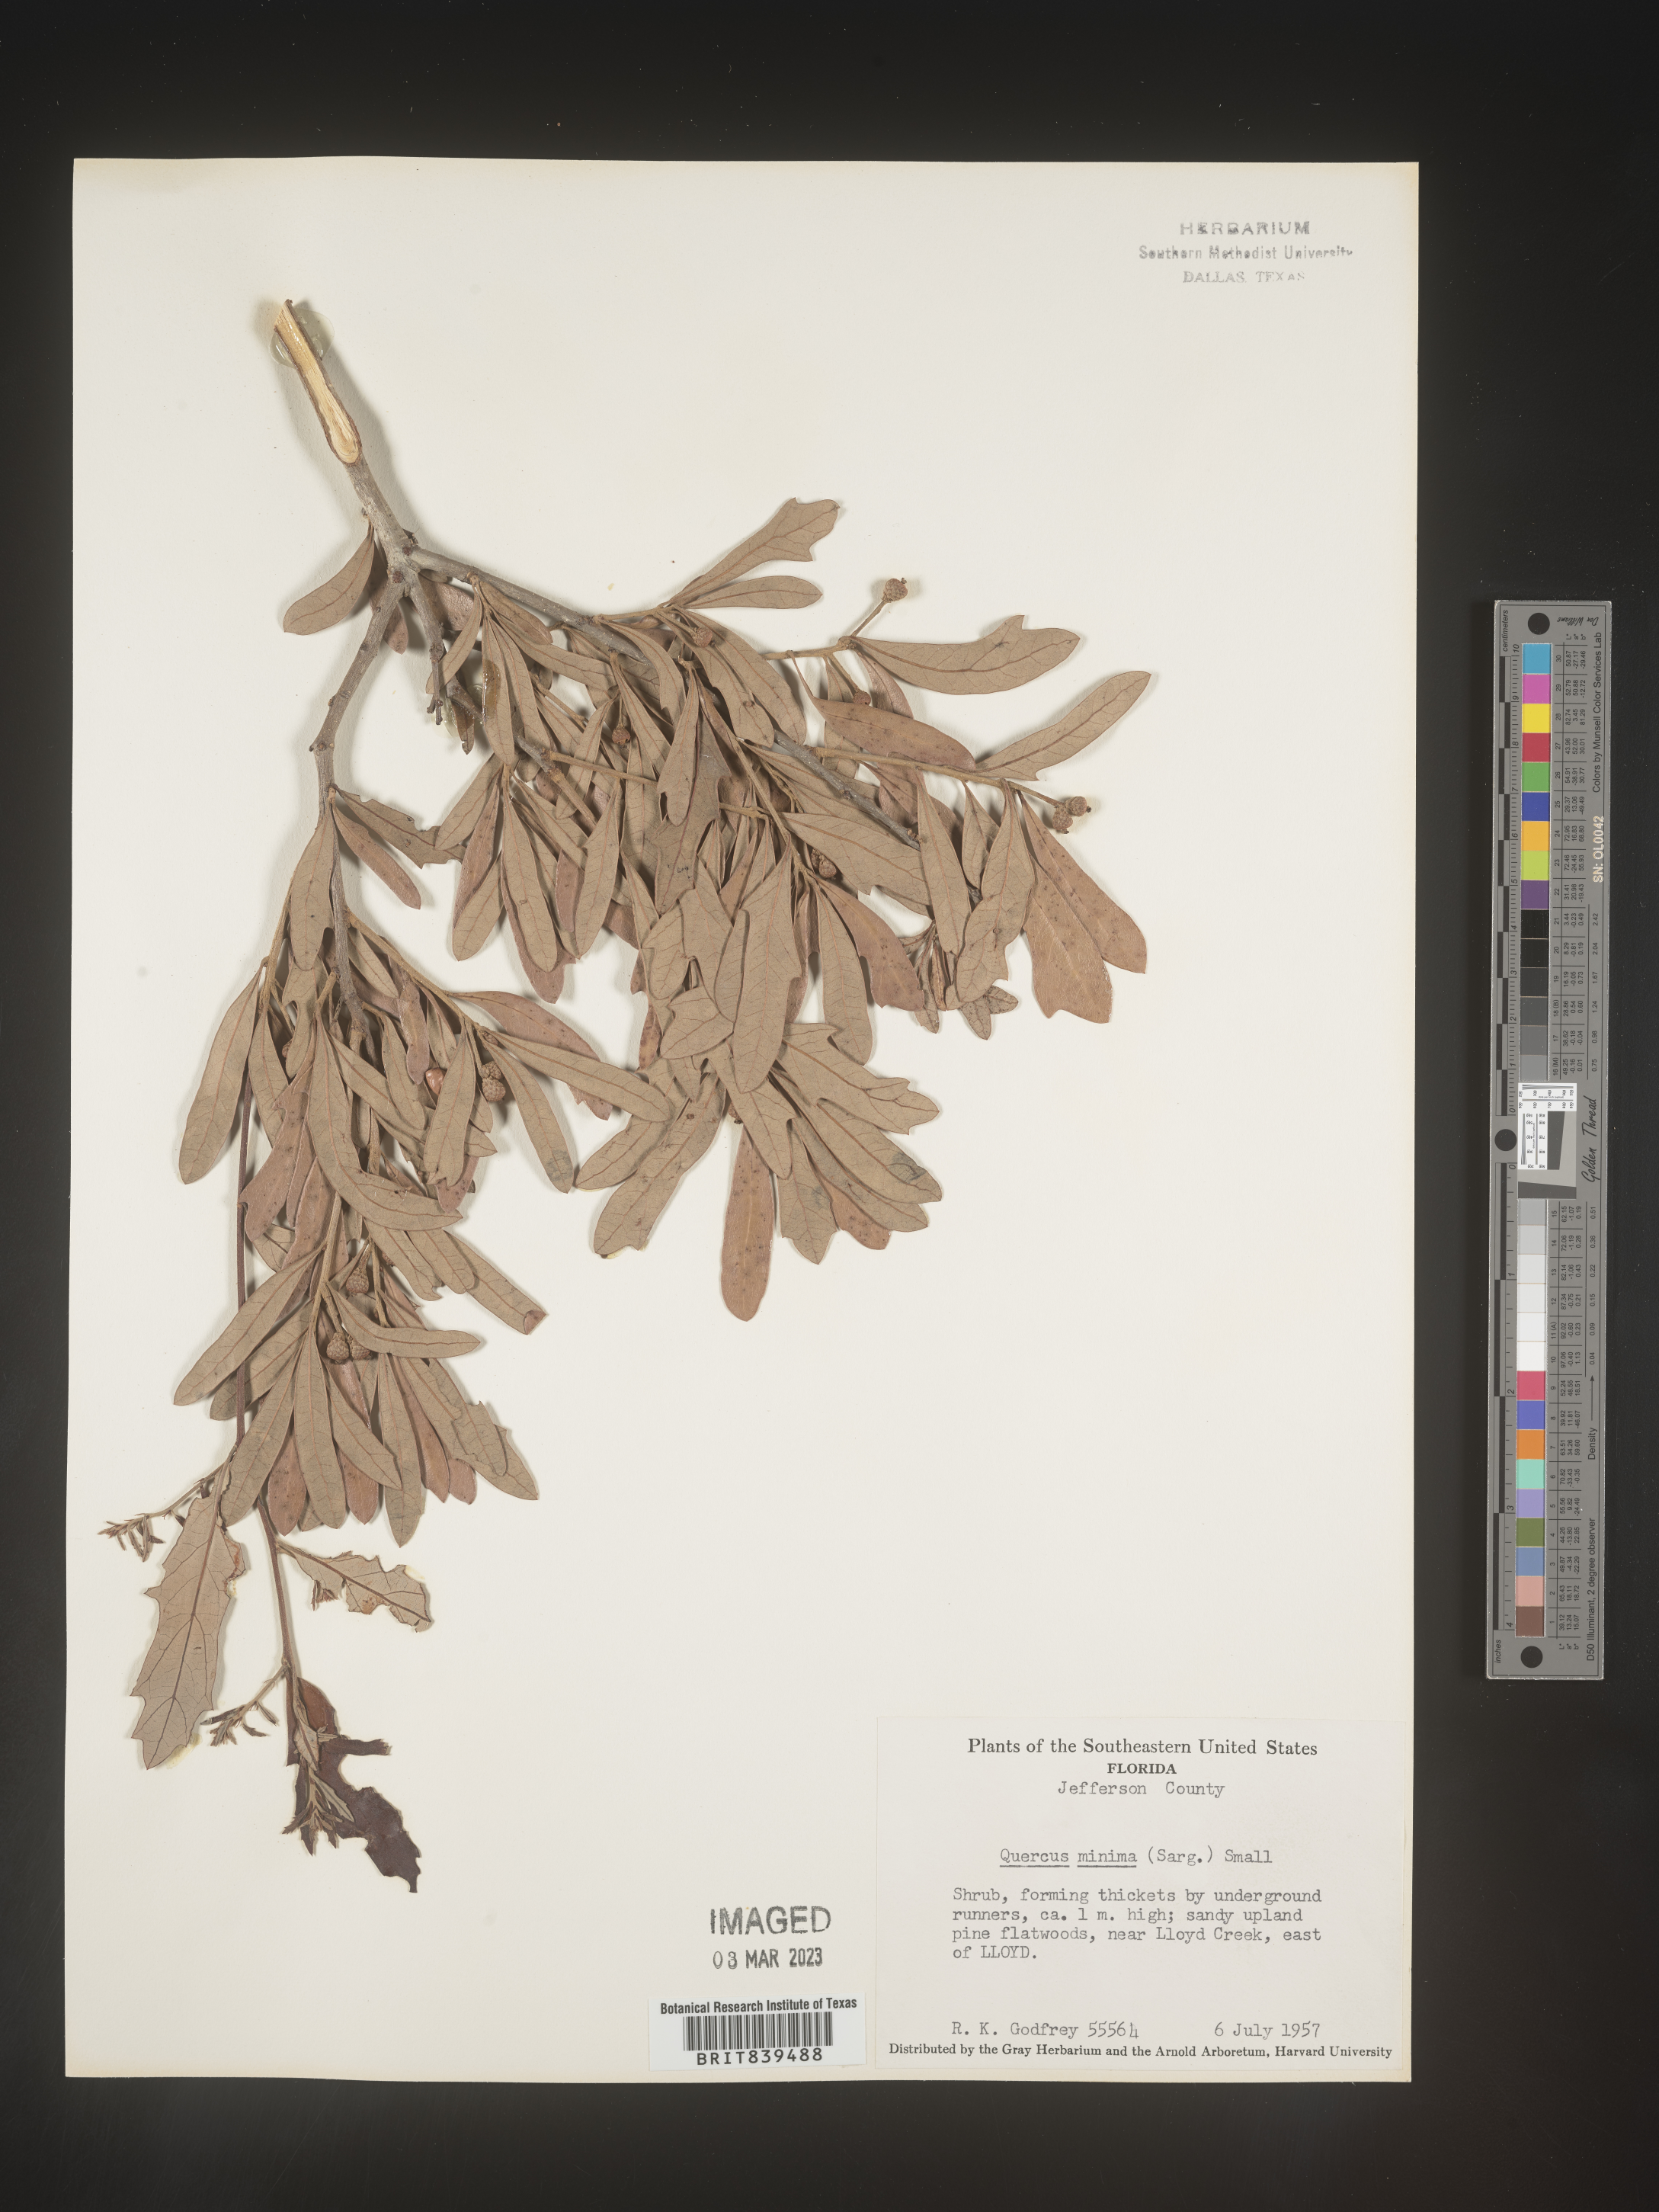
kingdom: Plantae
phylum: Tracheophyta
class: Magnoliopsida
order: Fagales
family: Fagaceae
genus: Quercus
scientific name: Quercus minima
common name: Dwarf live oak
